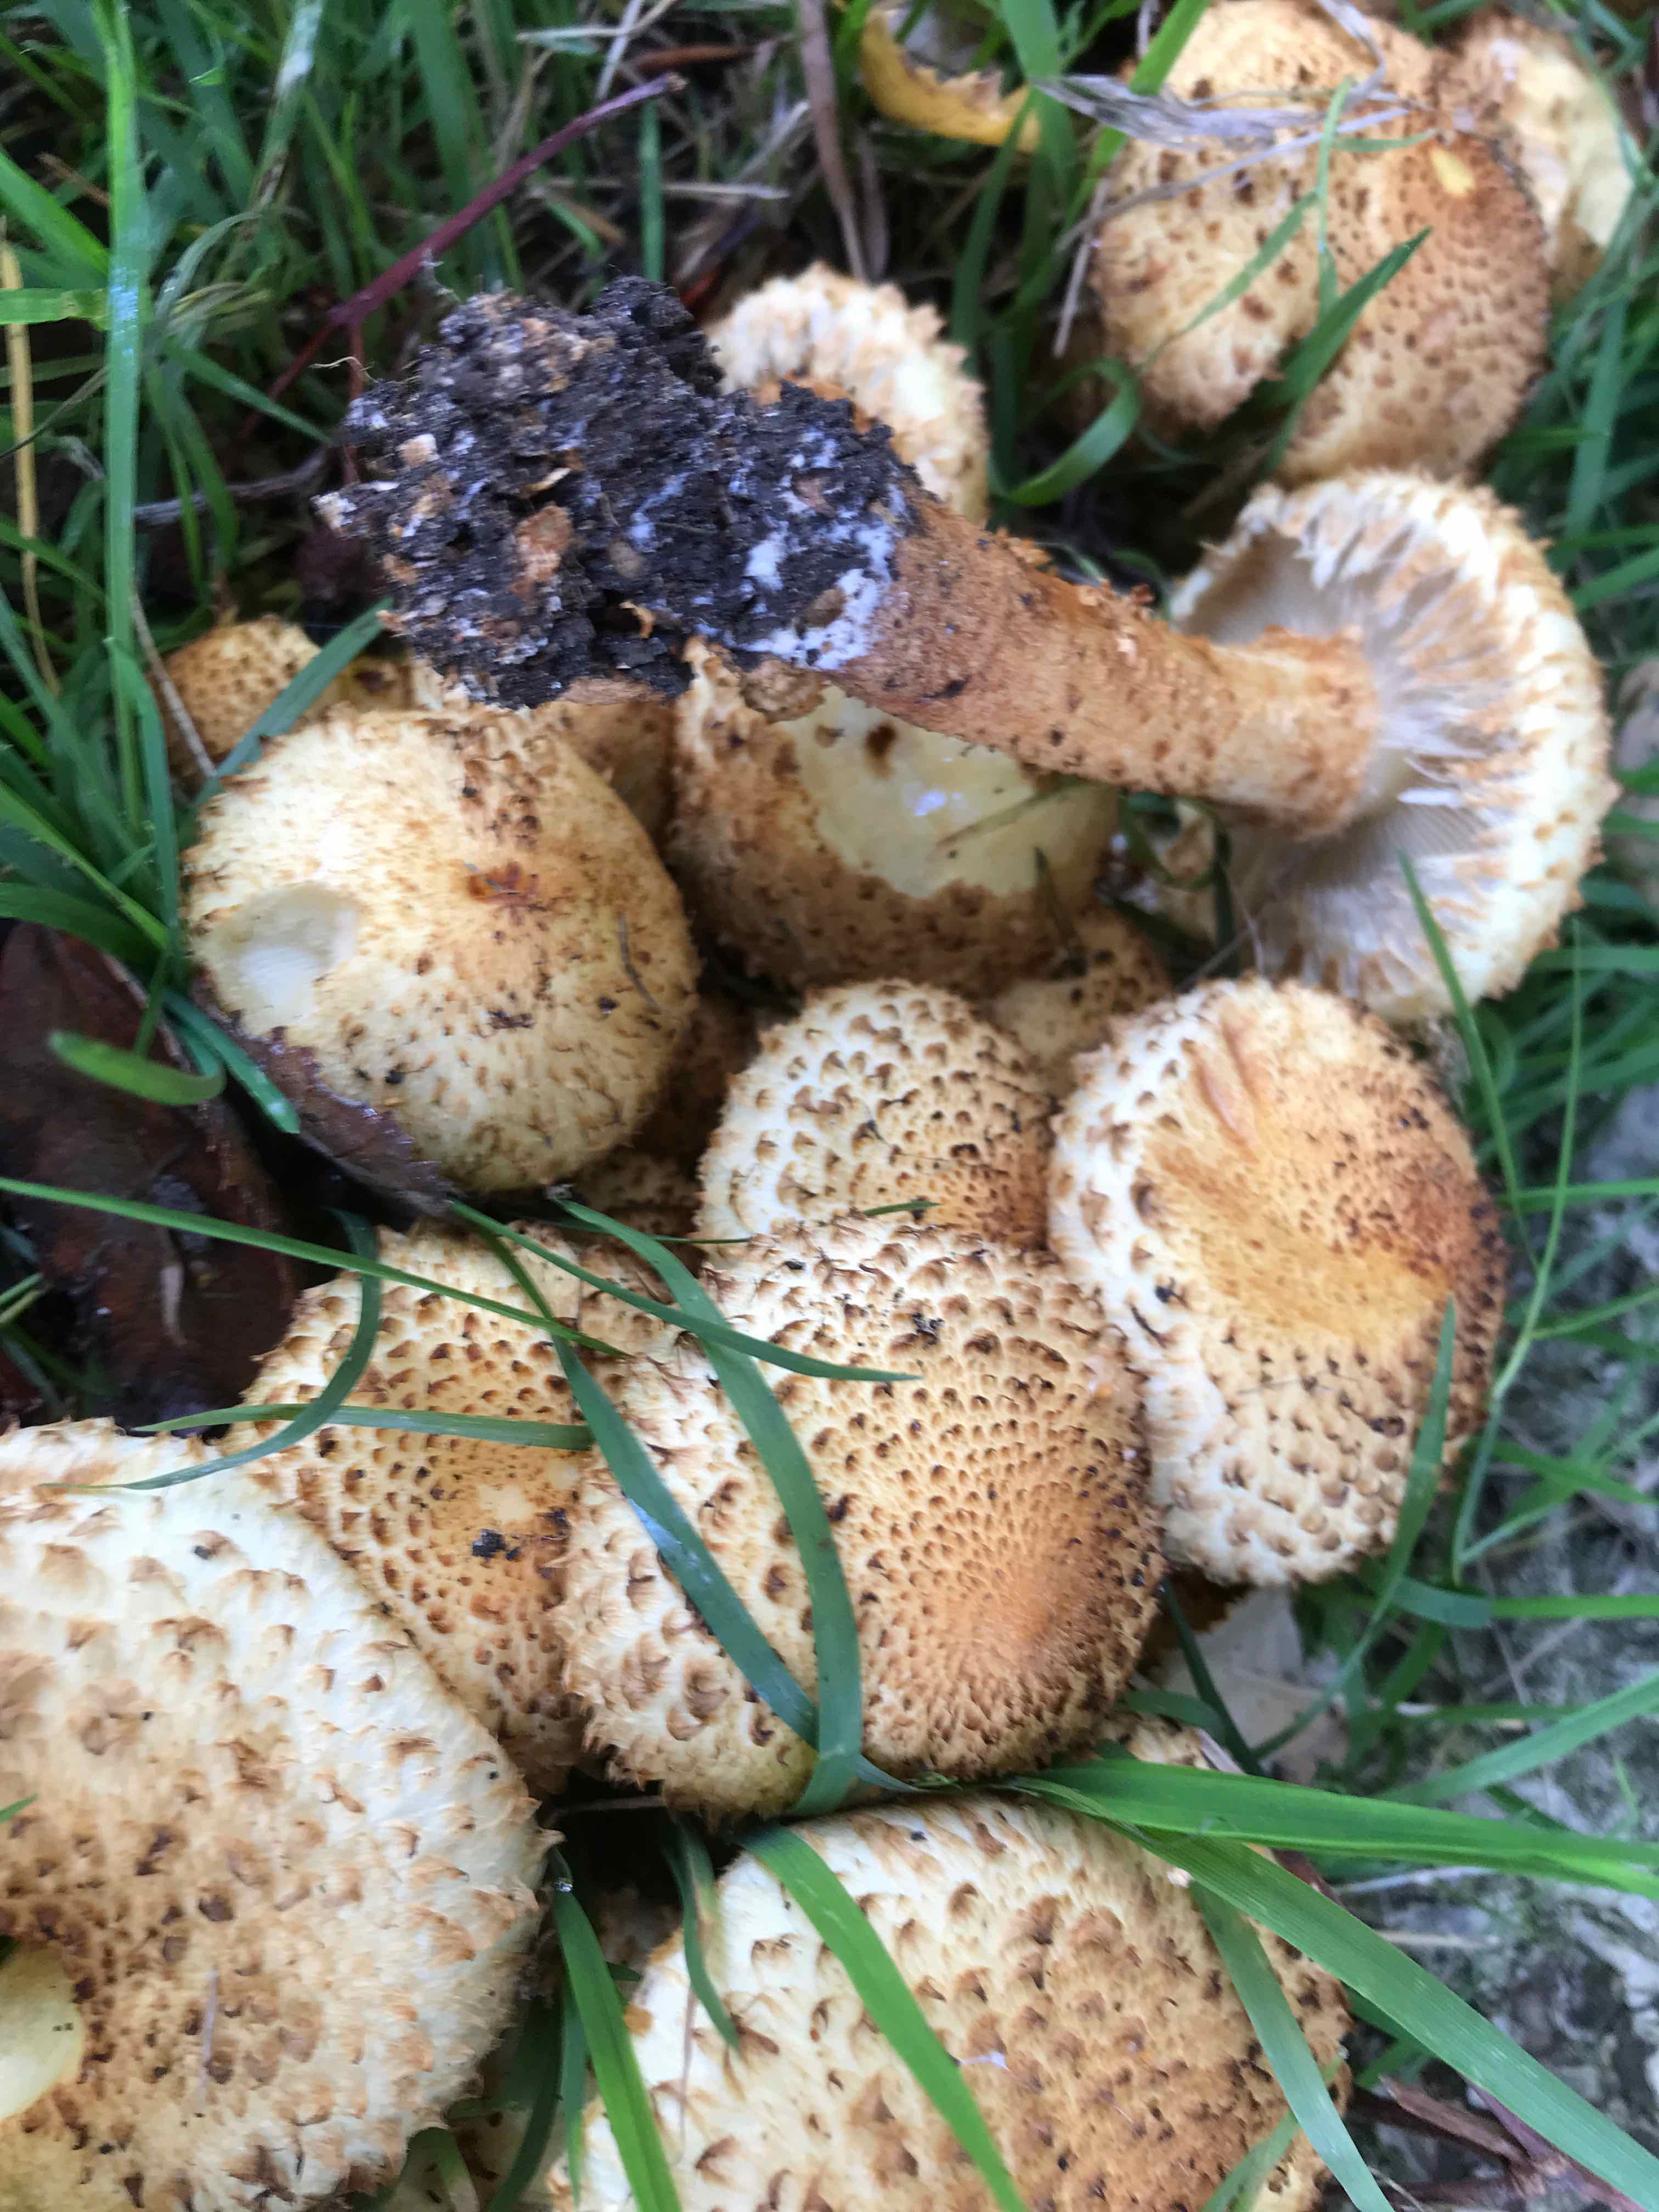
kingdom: Fungi
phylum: Basidiomycota
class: Agaricomycetes
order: Agaricales
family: Strophariaceae
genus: Pholiota
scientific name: Pholiota squarrosa
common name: krumskællet skælhat
